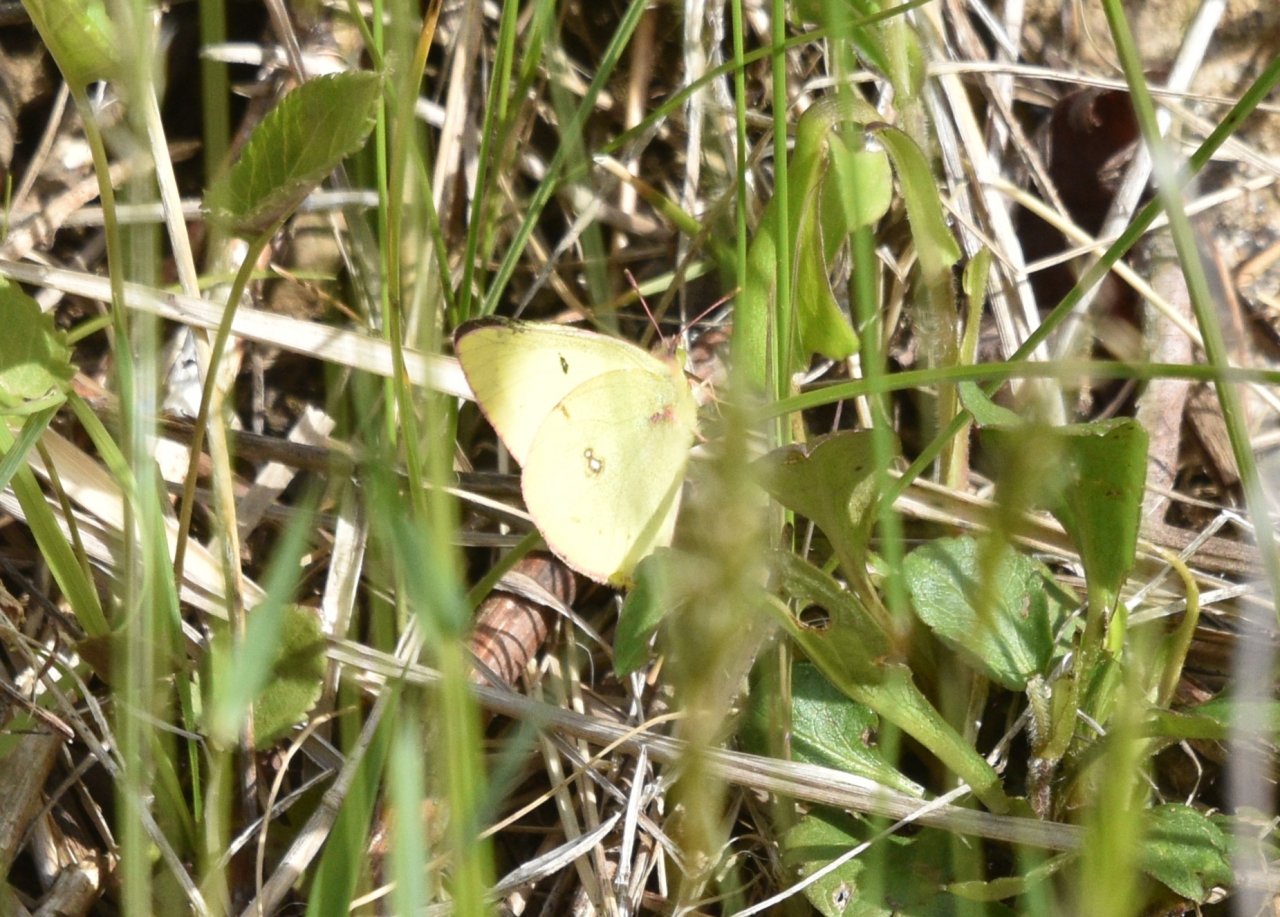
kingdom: Animalia
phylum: Arthropoda
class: Insecta
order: Lepidoptera
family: Pieridae
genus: Colias
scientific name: Colias philodice
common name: Clouded Sulphur
